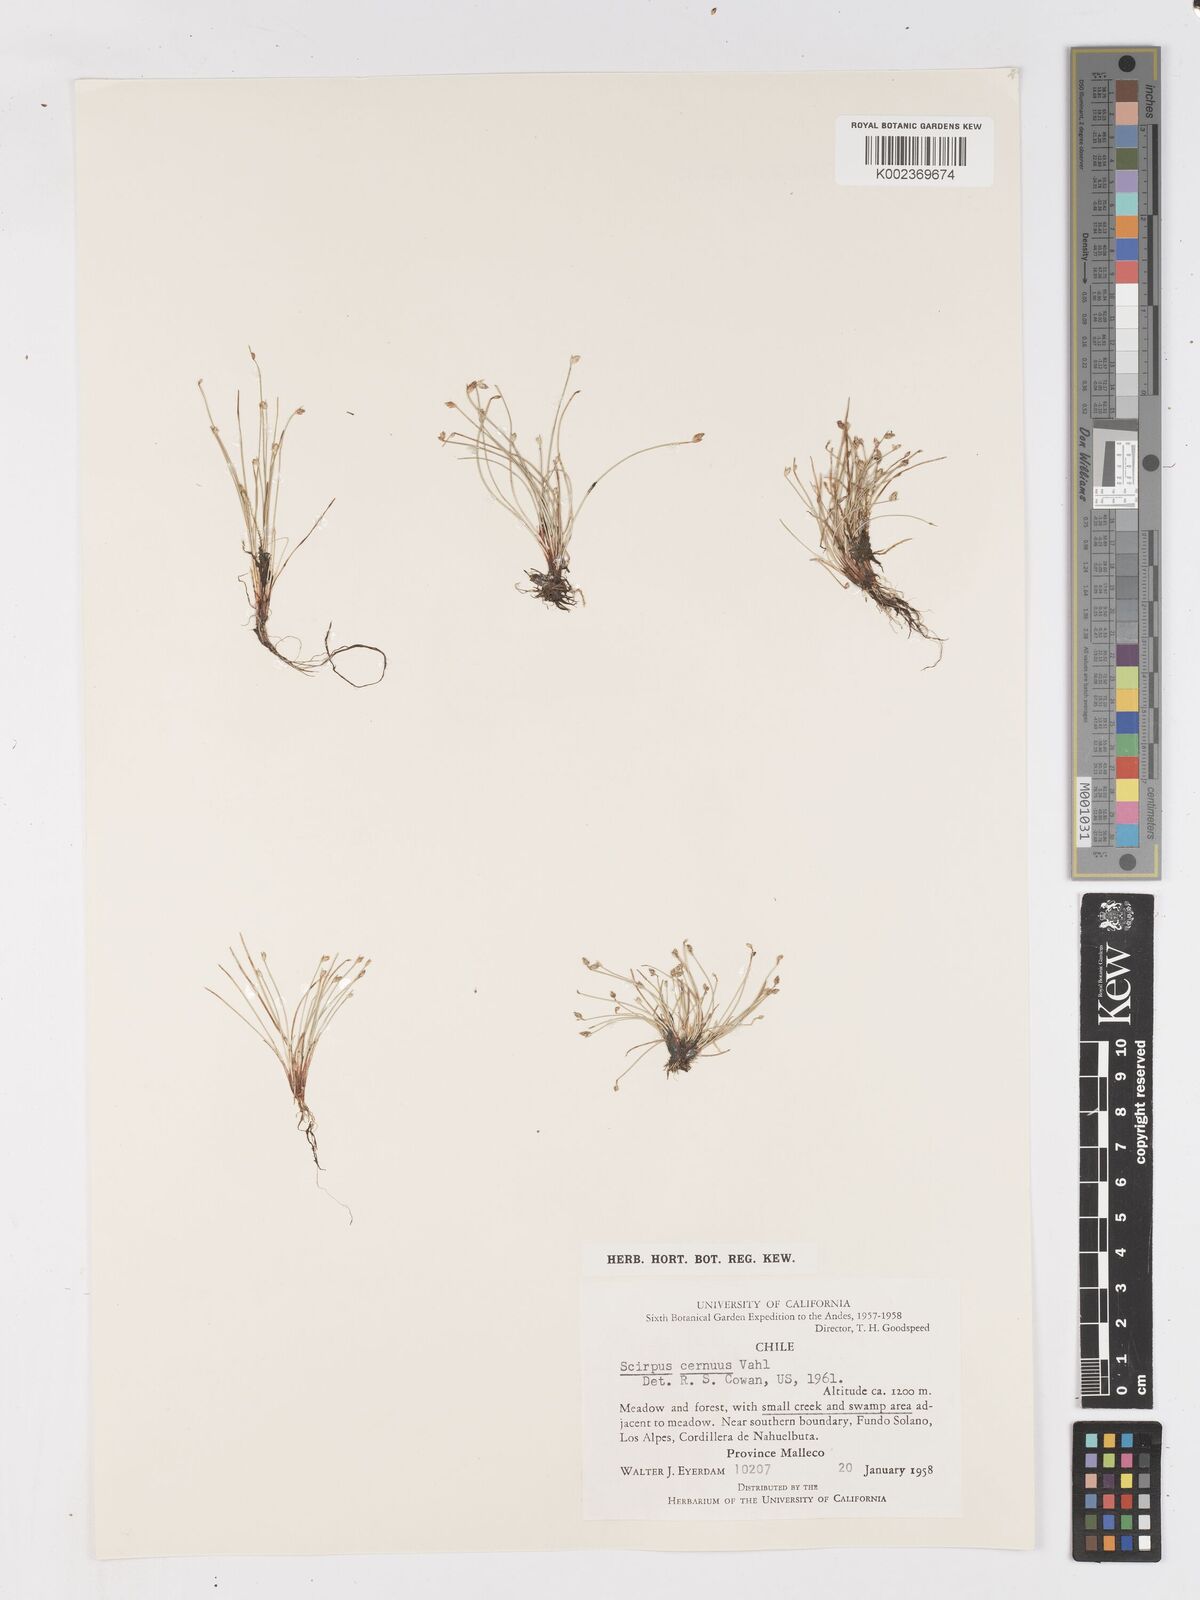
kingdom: Plantae
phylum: Tracheophyta
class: Liliopsida
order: Poales
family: Cyperaceae
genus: Isolepis
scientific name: Isolepis cernua
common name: Slender club-rush
